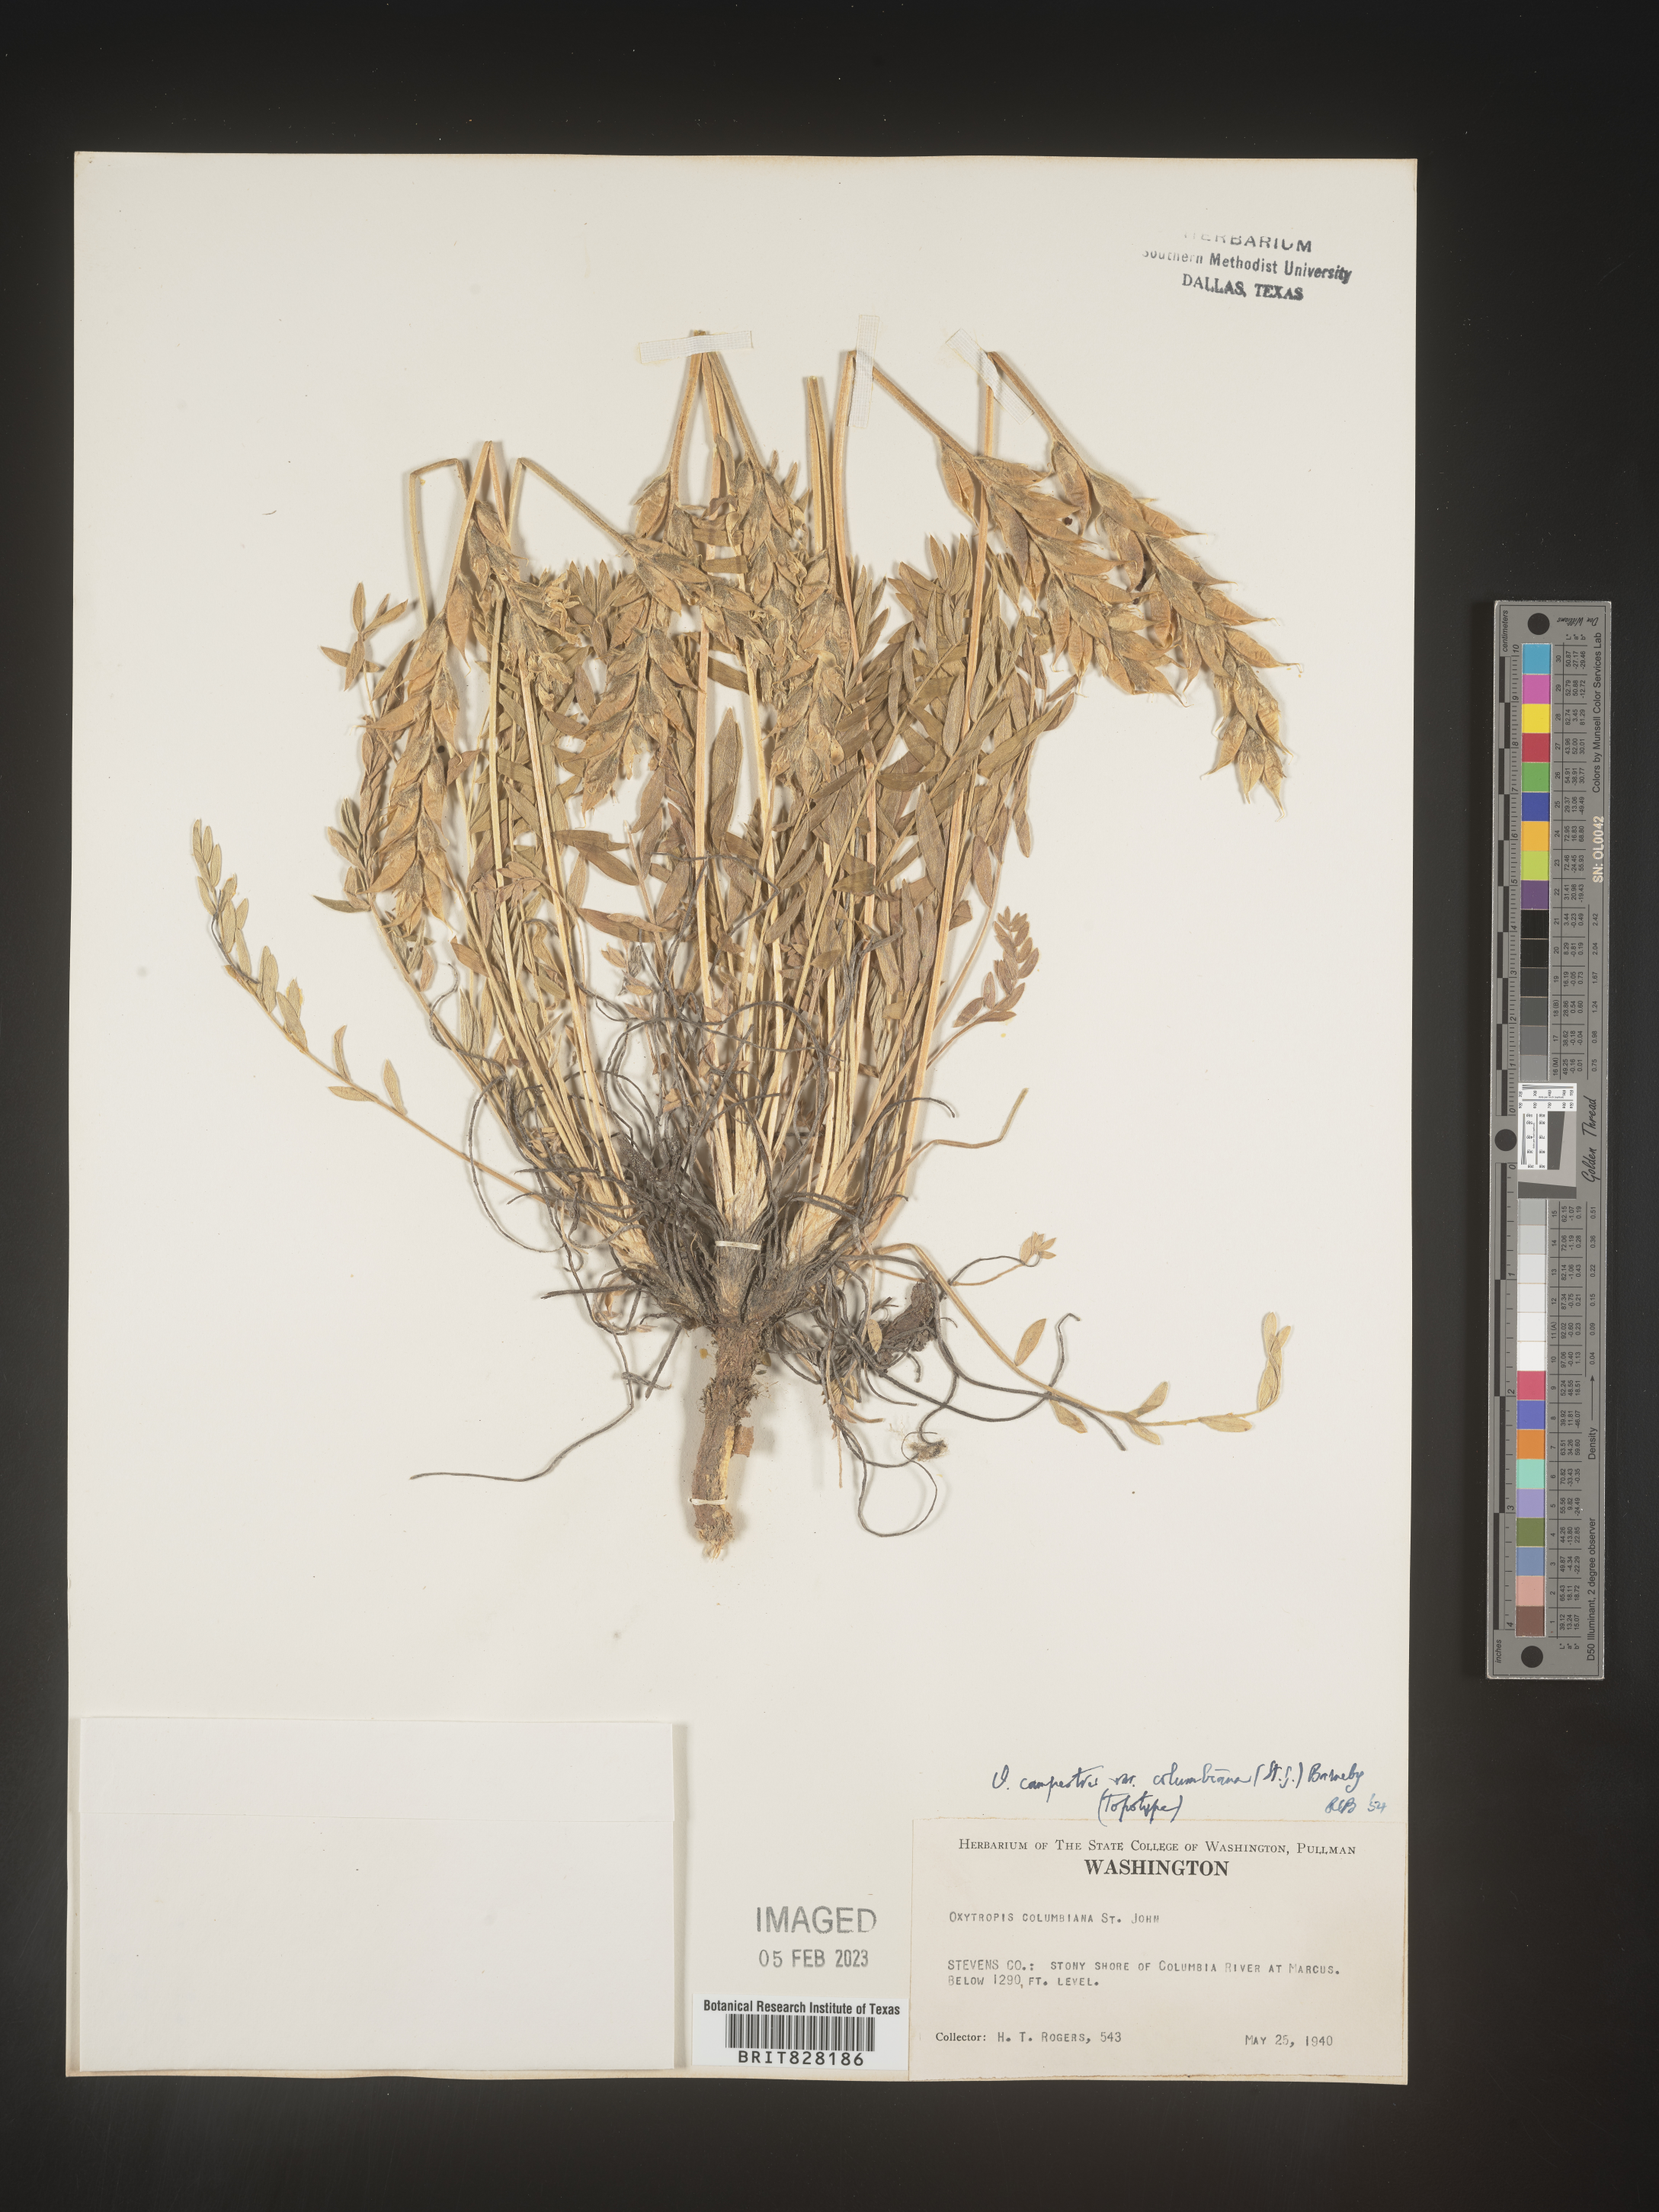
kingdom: Plantae
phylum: Tracheophyta
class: Magnoliopsida
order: Fabales
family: Fabaceae
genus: Oxytropis
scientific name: Oxytropis campestris
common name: Field locoweed
